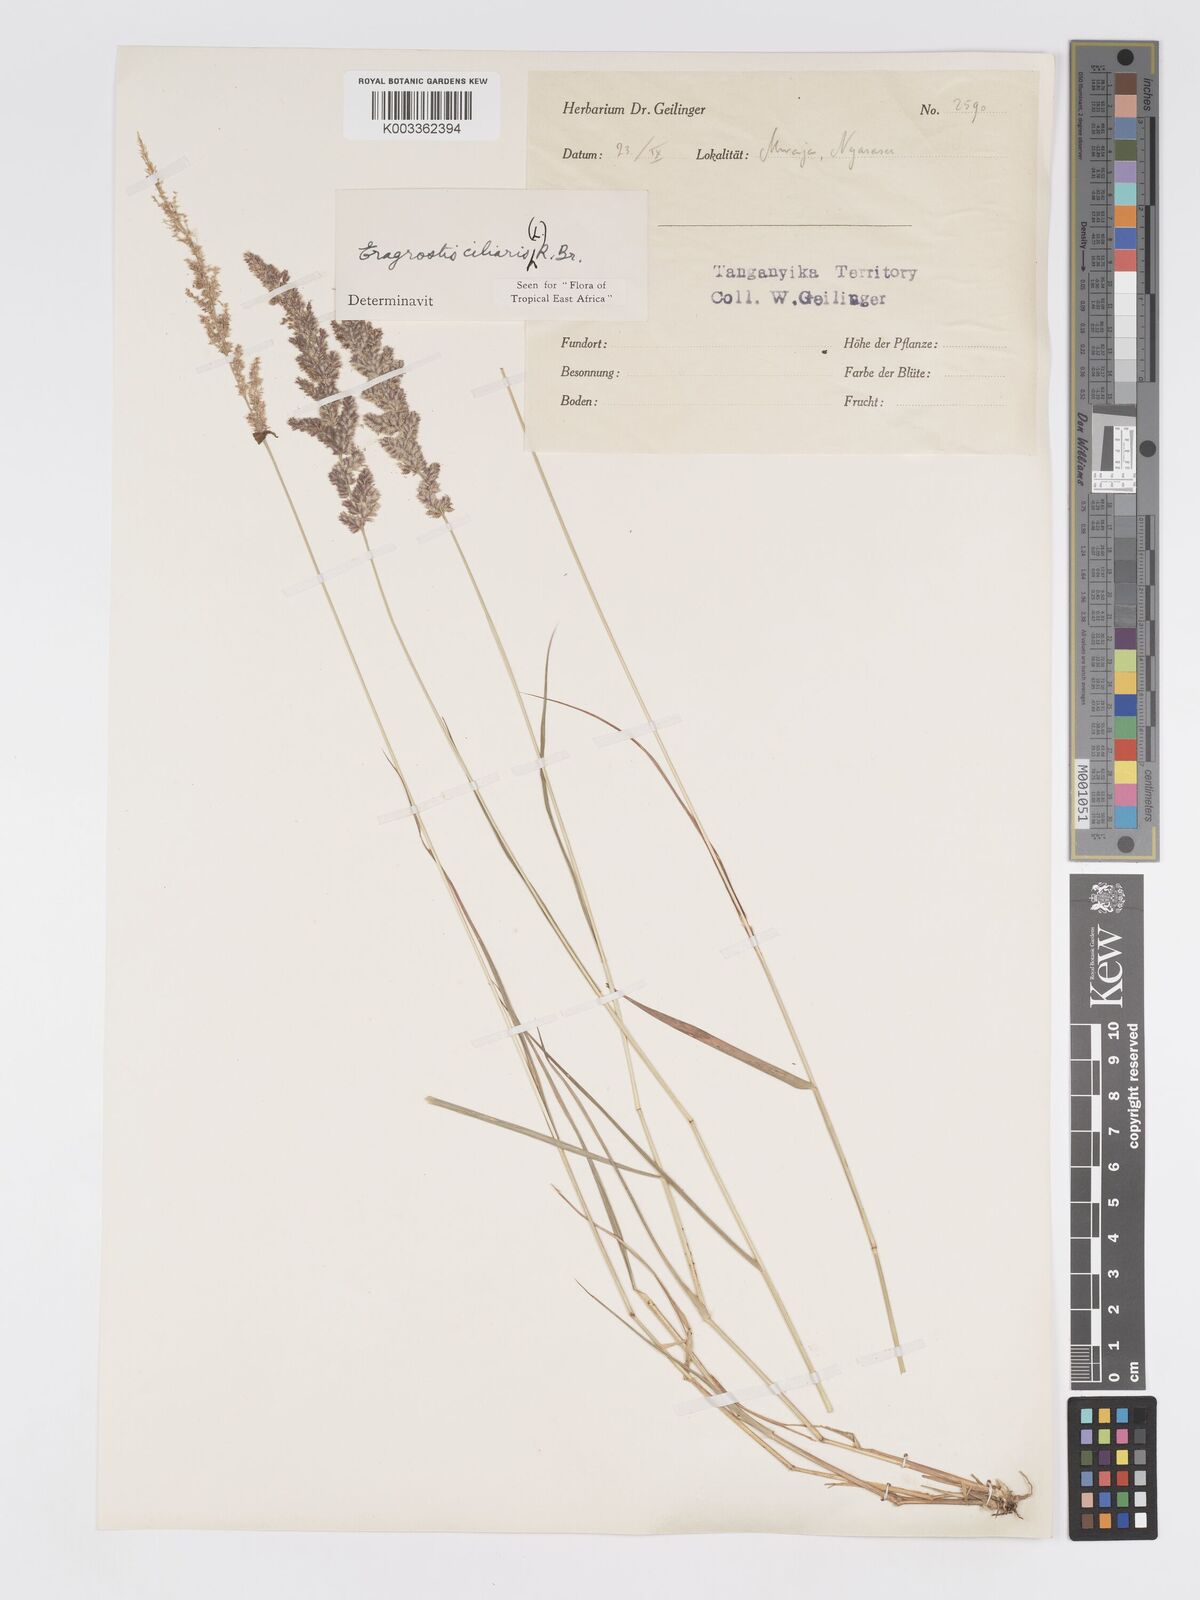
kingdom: Plantae
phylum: Tracheophyta
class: Liliopsida
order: Poales
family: Poaceae
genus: Eragrostis
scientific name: Eragrostis ciliaris
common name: Gophertail lovegrass
